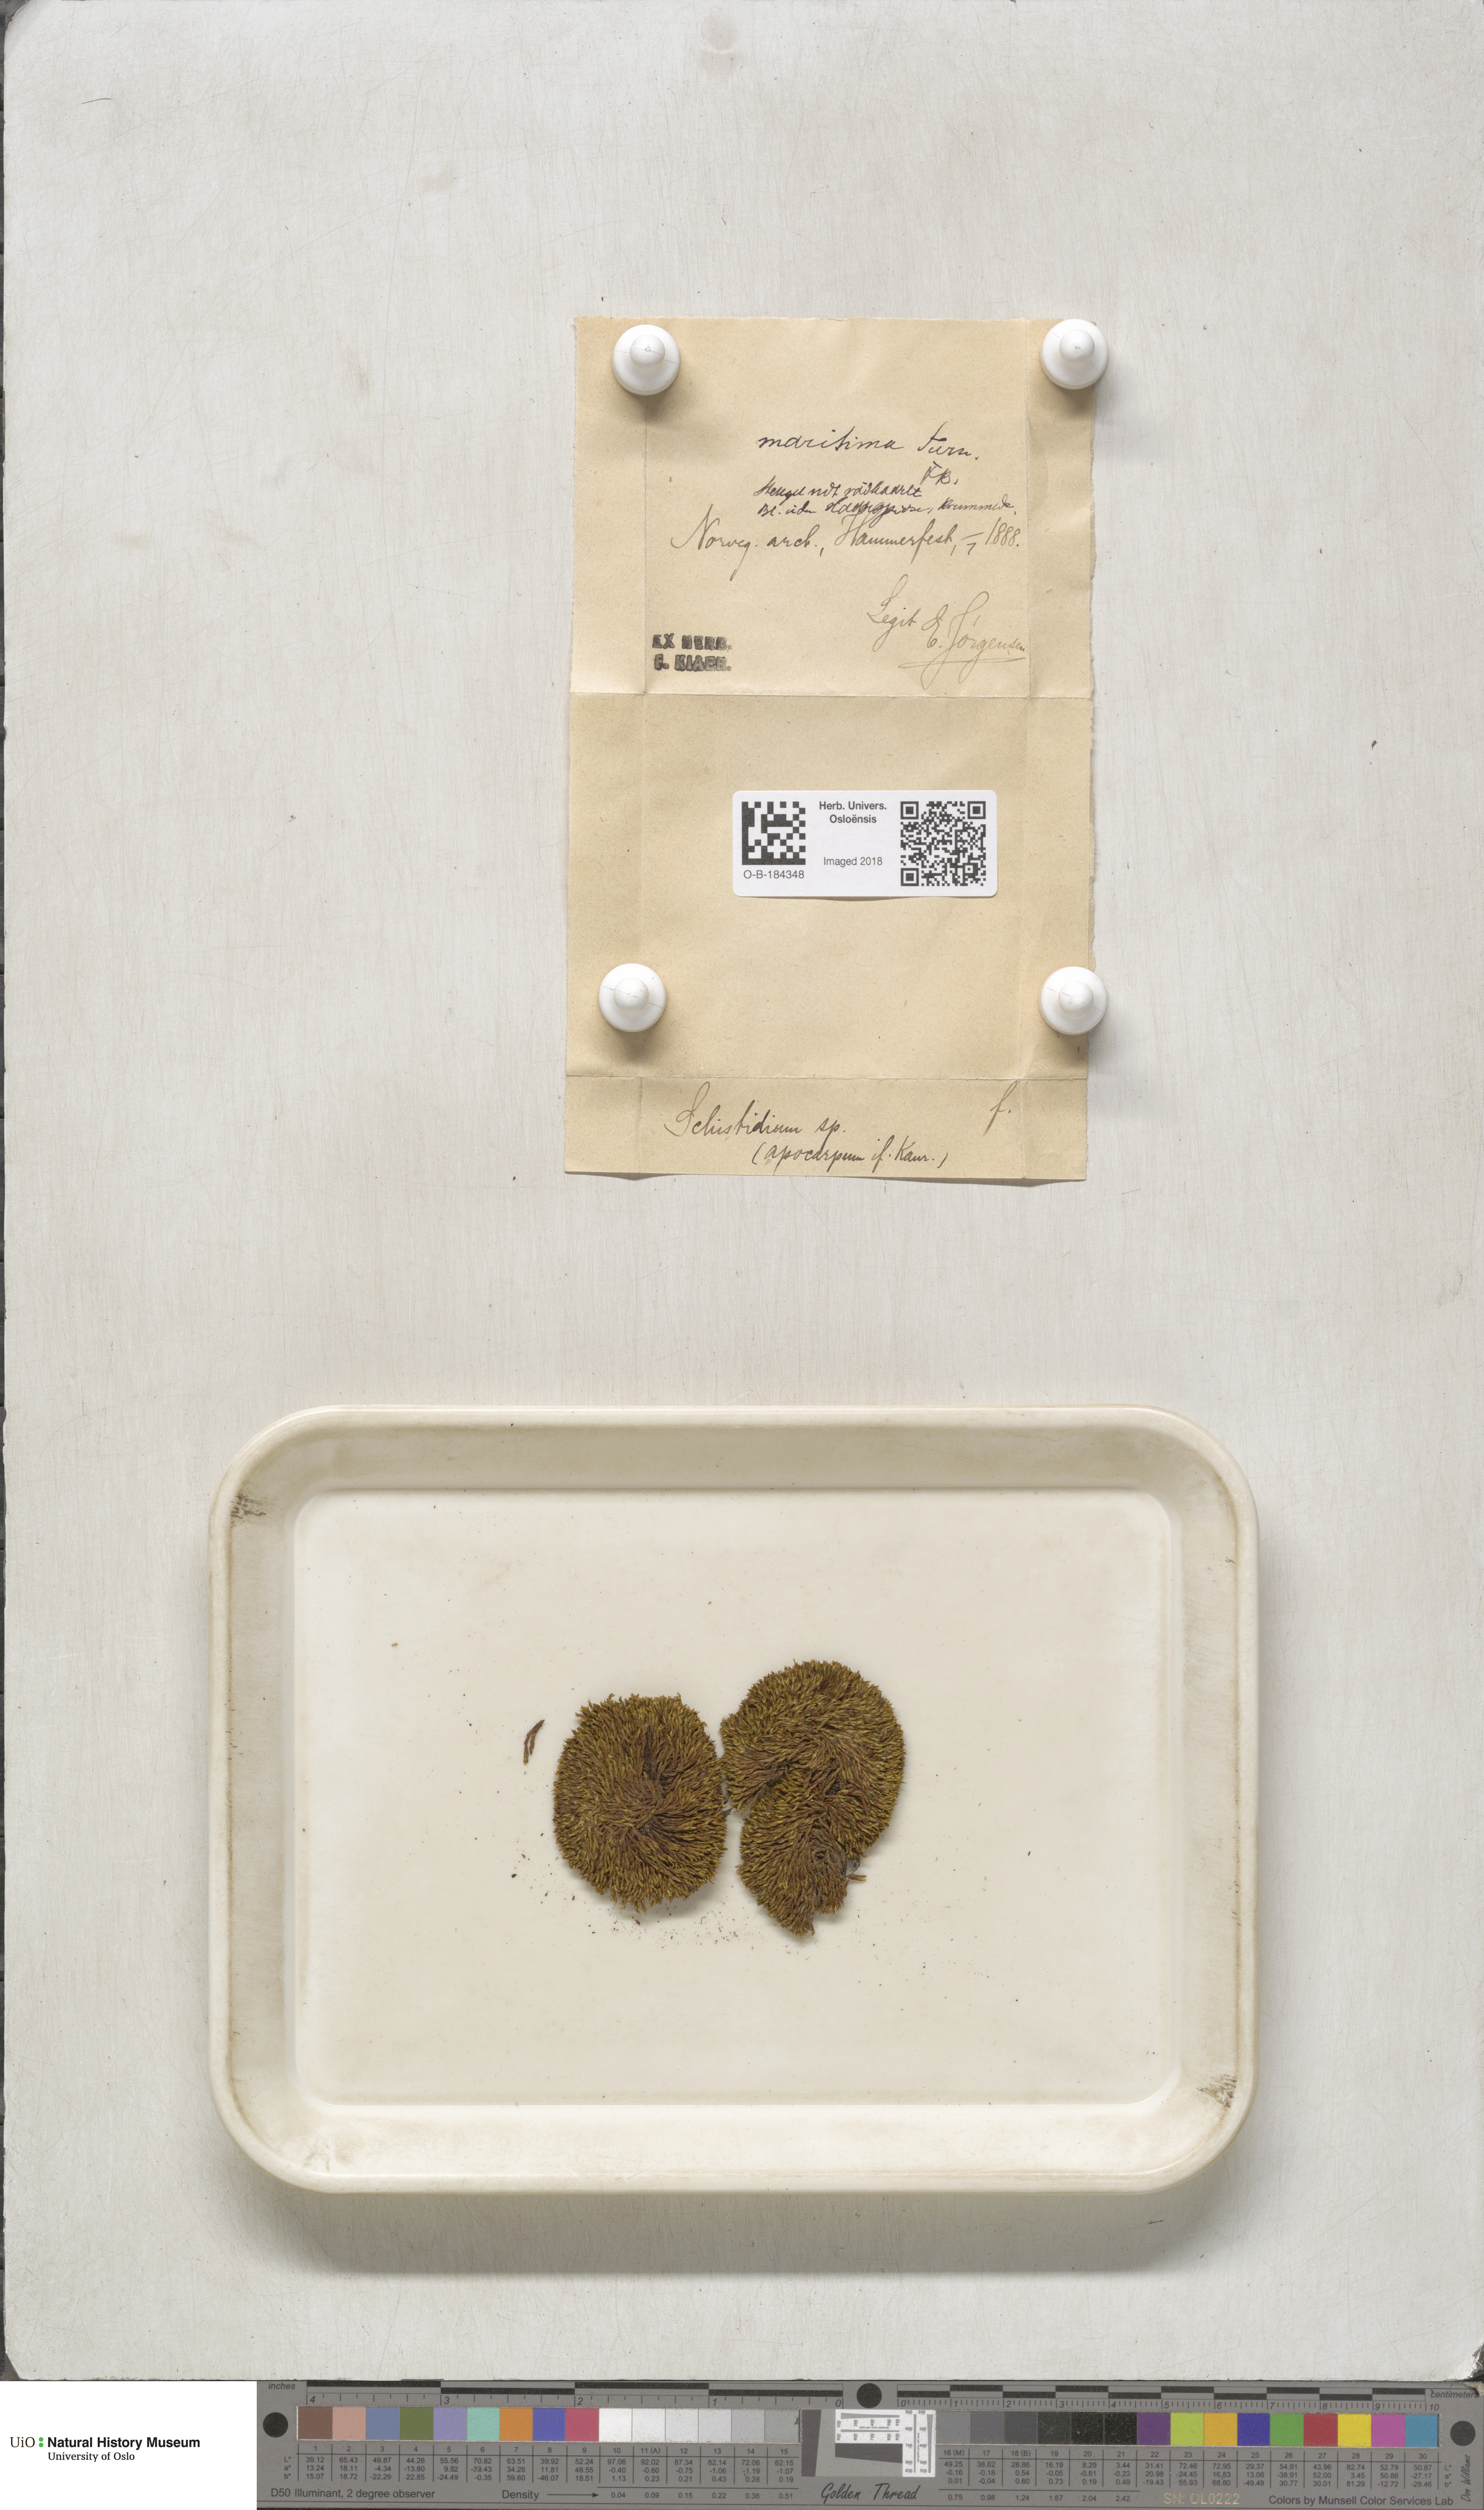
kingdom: Plantae
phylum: Bryophyta
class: Bryopsida
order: Grimmiales
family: Grimmiaceae
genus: Schistidium
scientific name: Schistidium maritimum
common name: Seaside bloom moss
